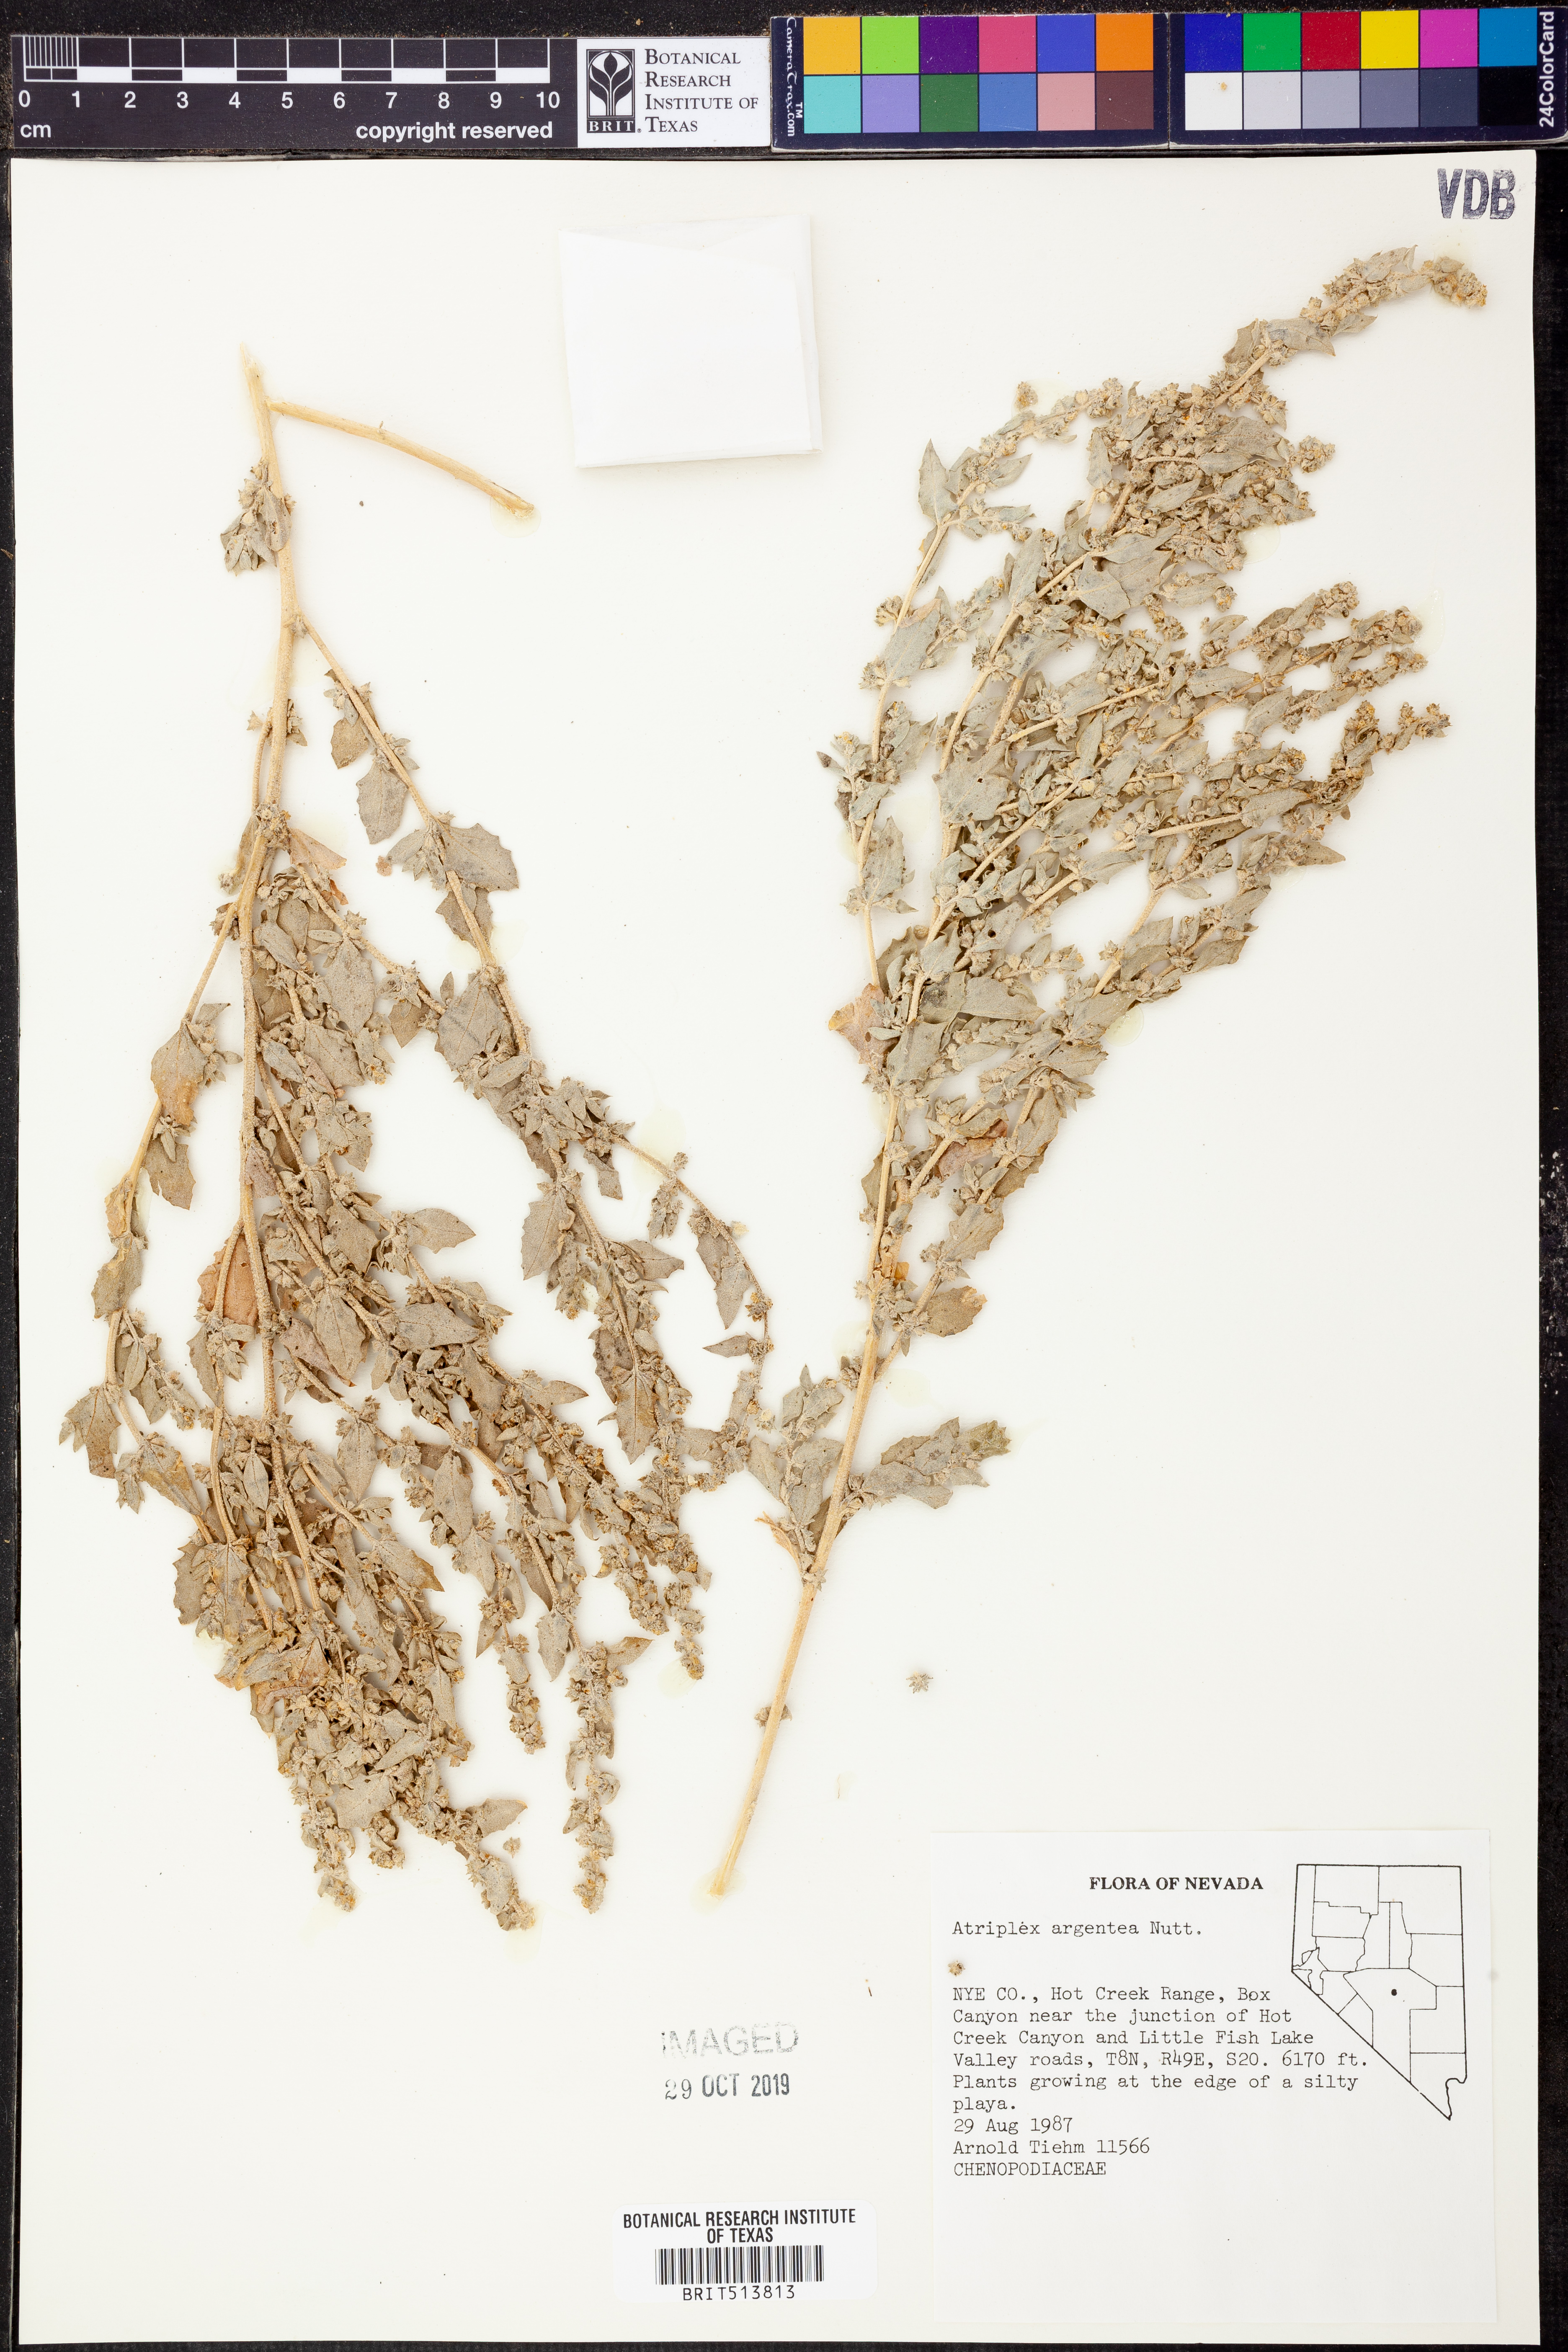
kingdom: Plantae
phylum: Tracheophyta
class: Magnoliopsida
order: Caryophyllales
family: Amaranthaceae
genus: Atriplex
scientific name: Atriplex argentea
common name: Silverscale
